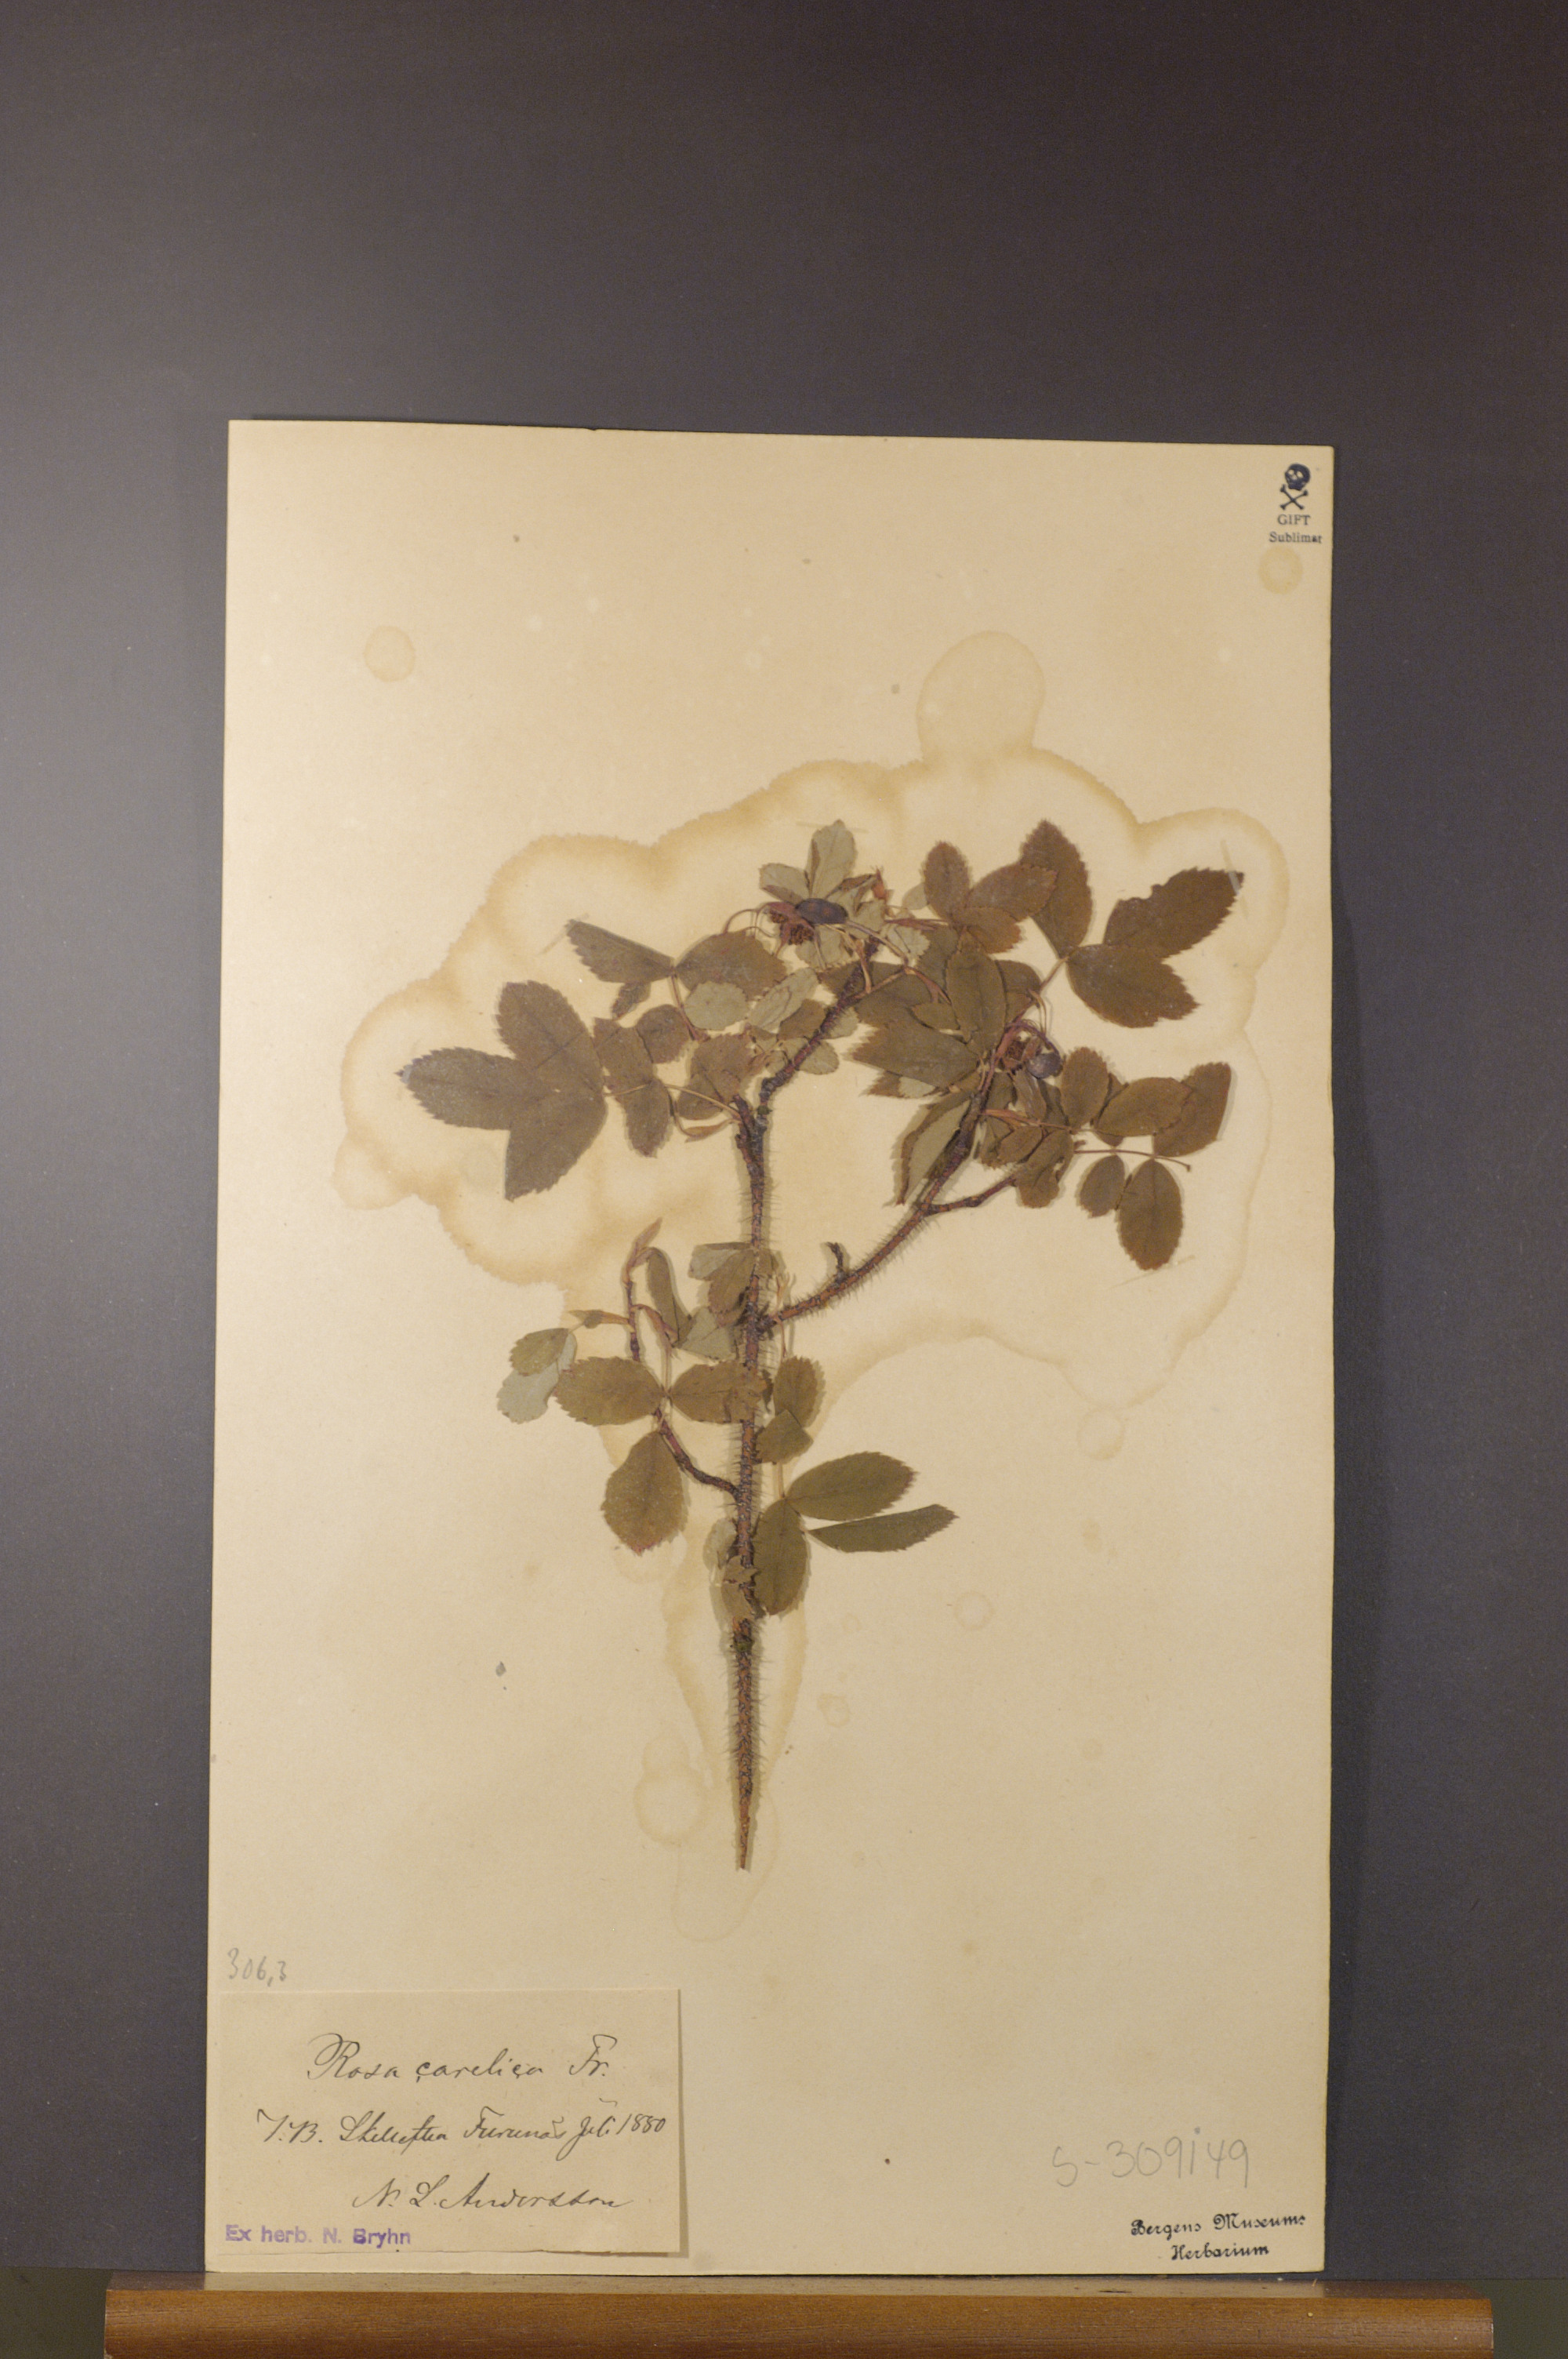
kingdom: Plantae
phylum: Tracheophyta
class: Magnoliopsida
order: Rosales
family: Rosaceae
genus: Rosa
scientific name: Rosa acicularis
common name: Prickly rose
